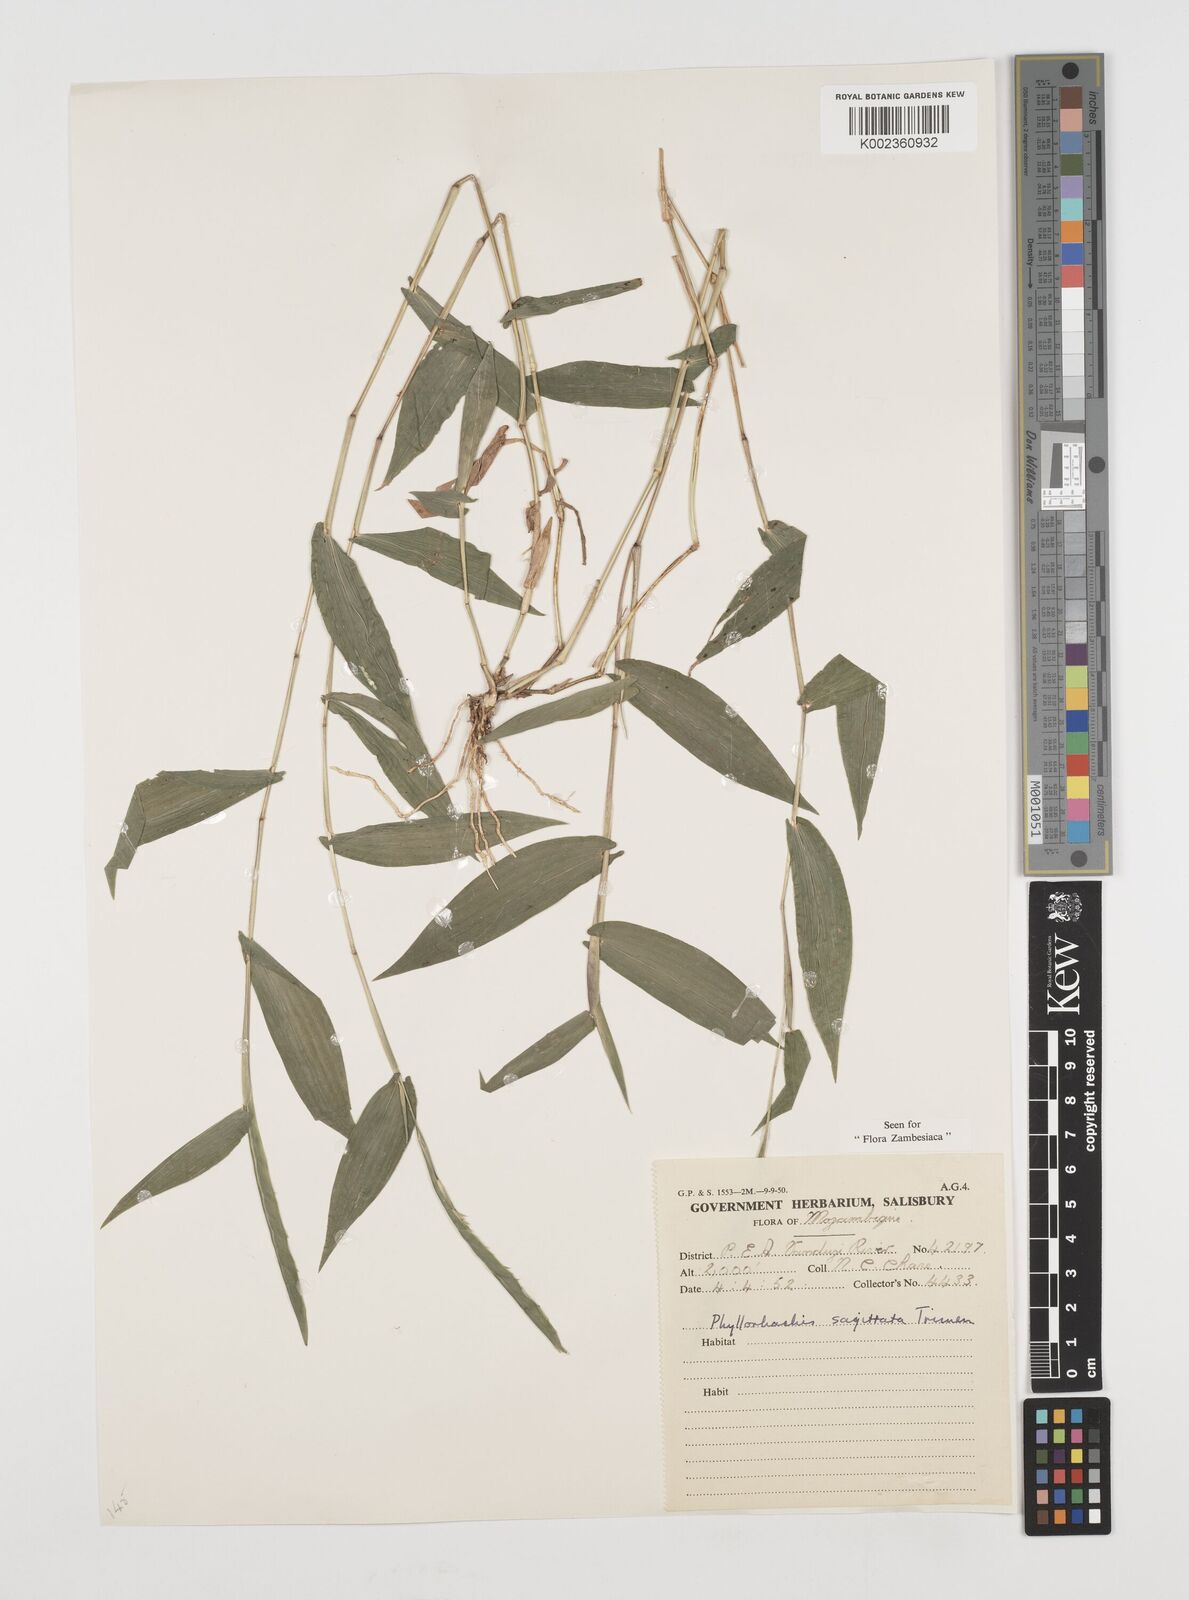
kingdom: Plantae
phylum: Tracheophyta
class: Liliopsida
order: Poales
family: Poaceae
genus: Phyllorachis
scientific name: Phyllorachis sagittata
